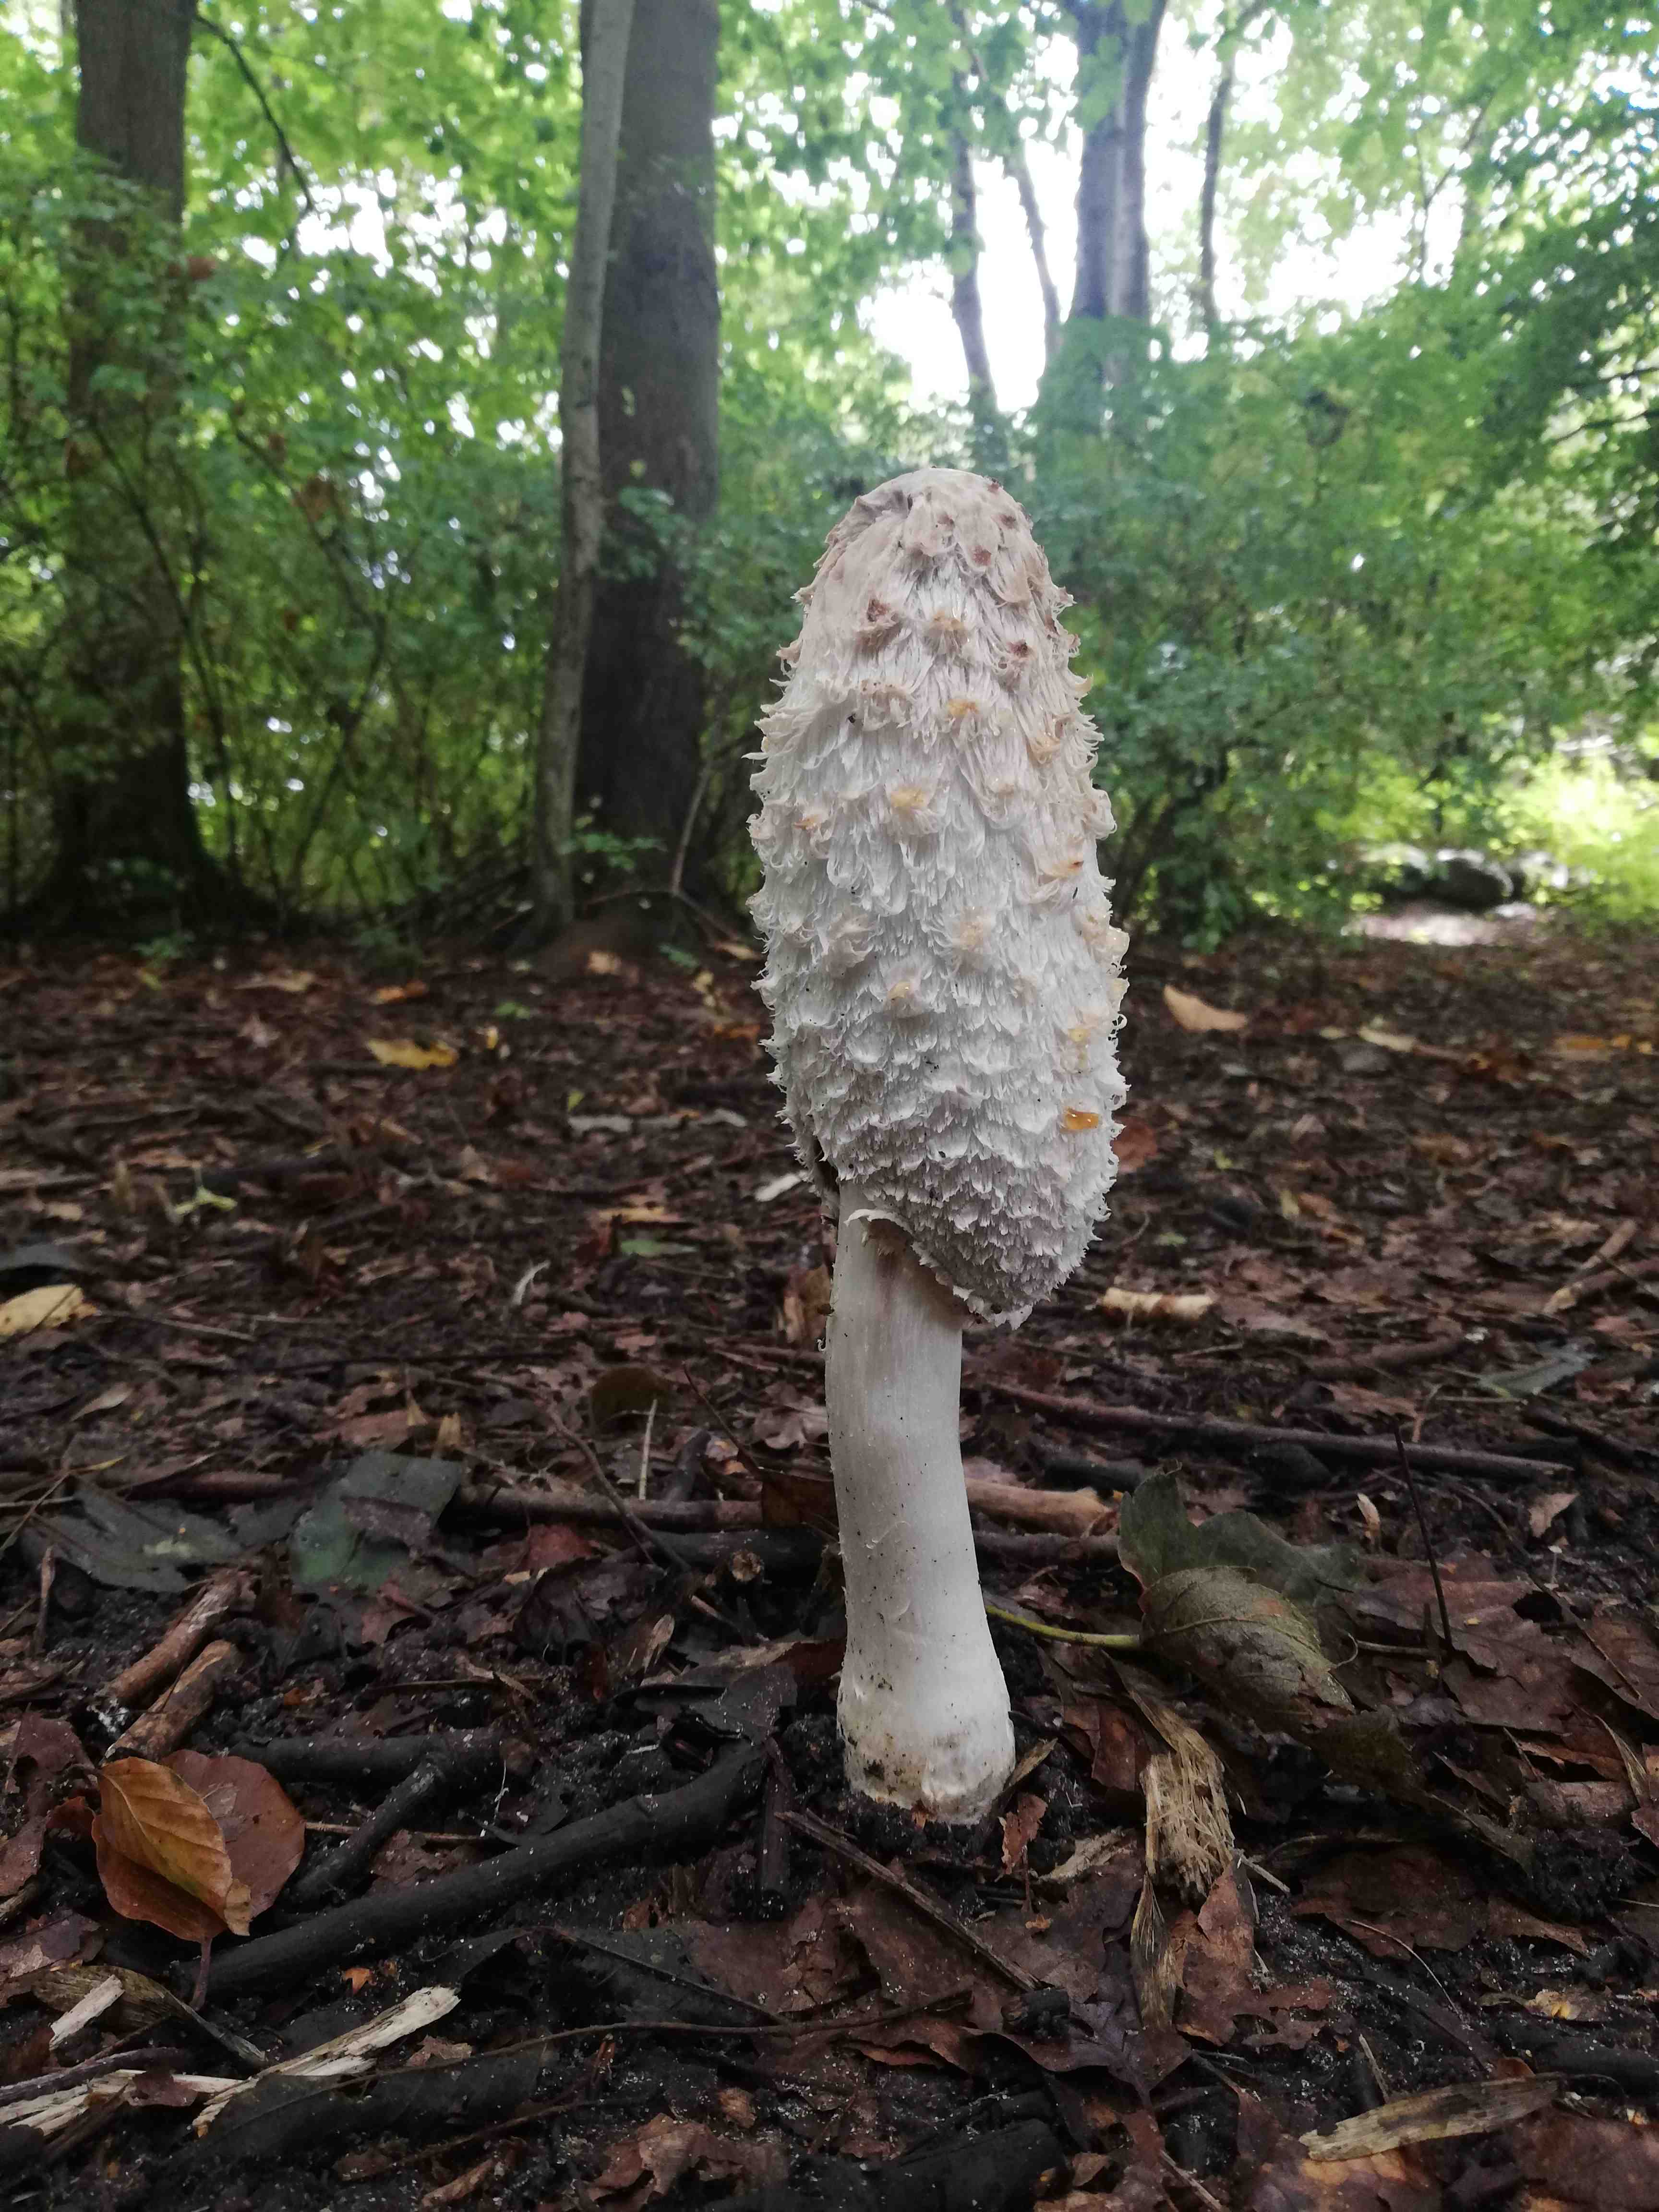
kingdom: Fungi
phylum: Basidiomycota
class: Agaricomycetes
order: Agaricales
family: Agaricaceae
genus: Coprinus
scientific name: Coprinus comatus
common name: stor parykhat
